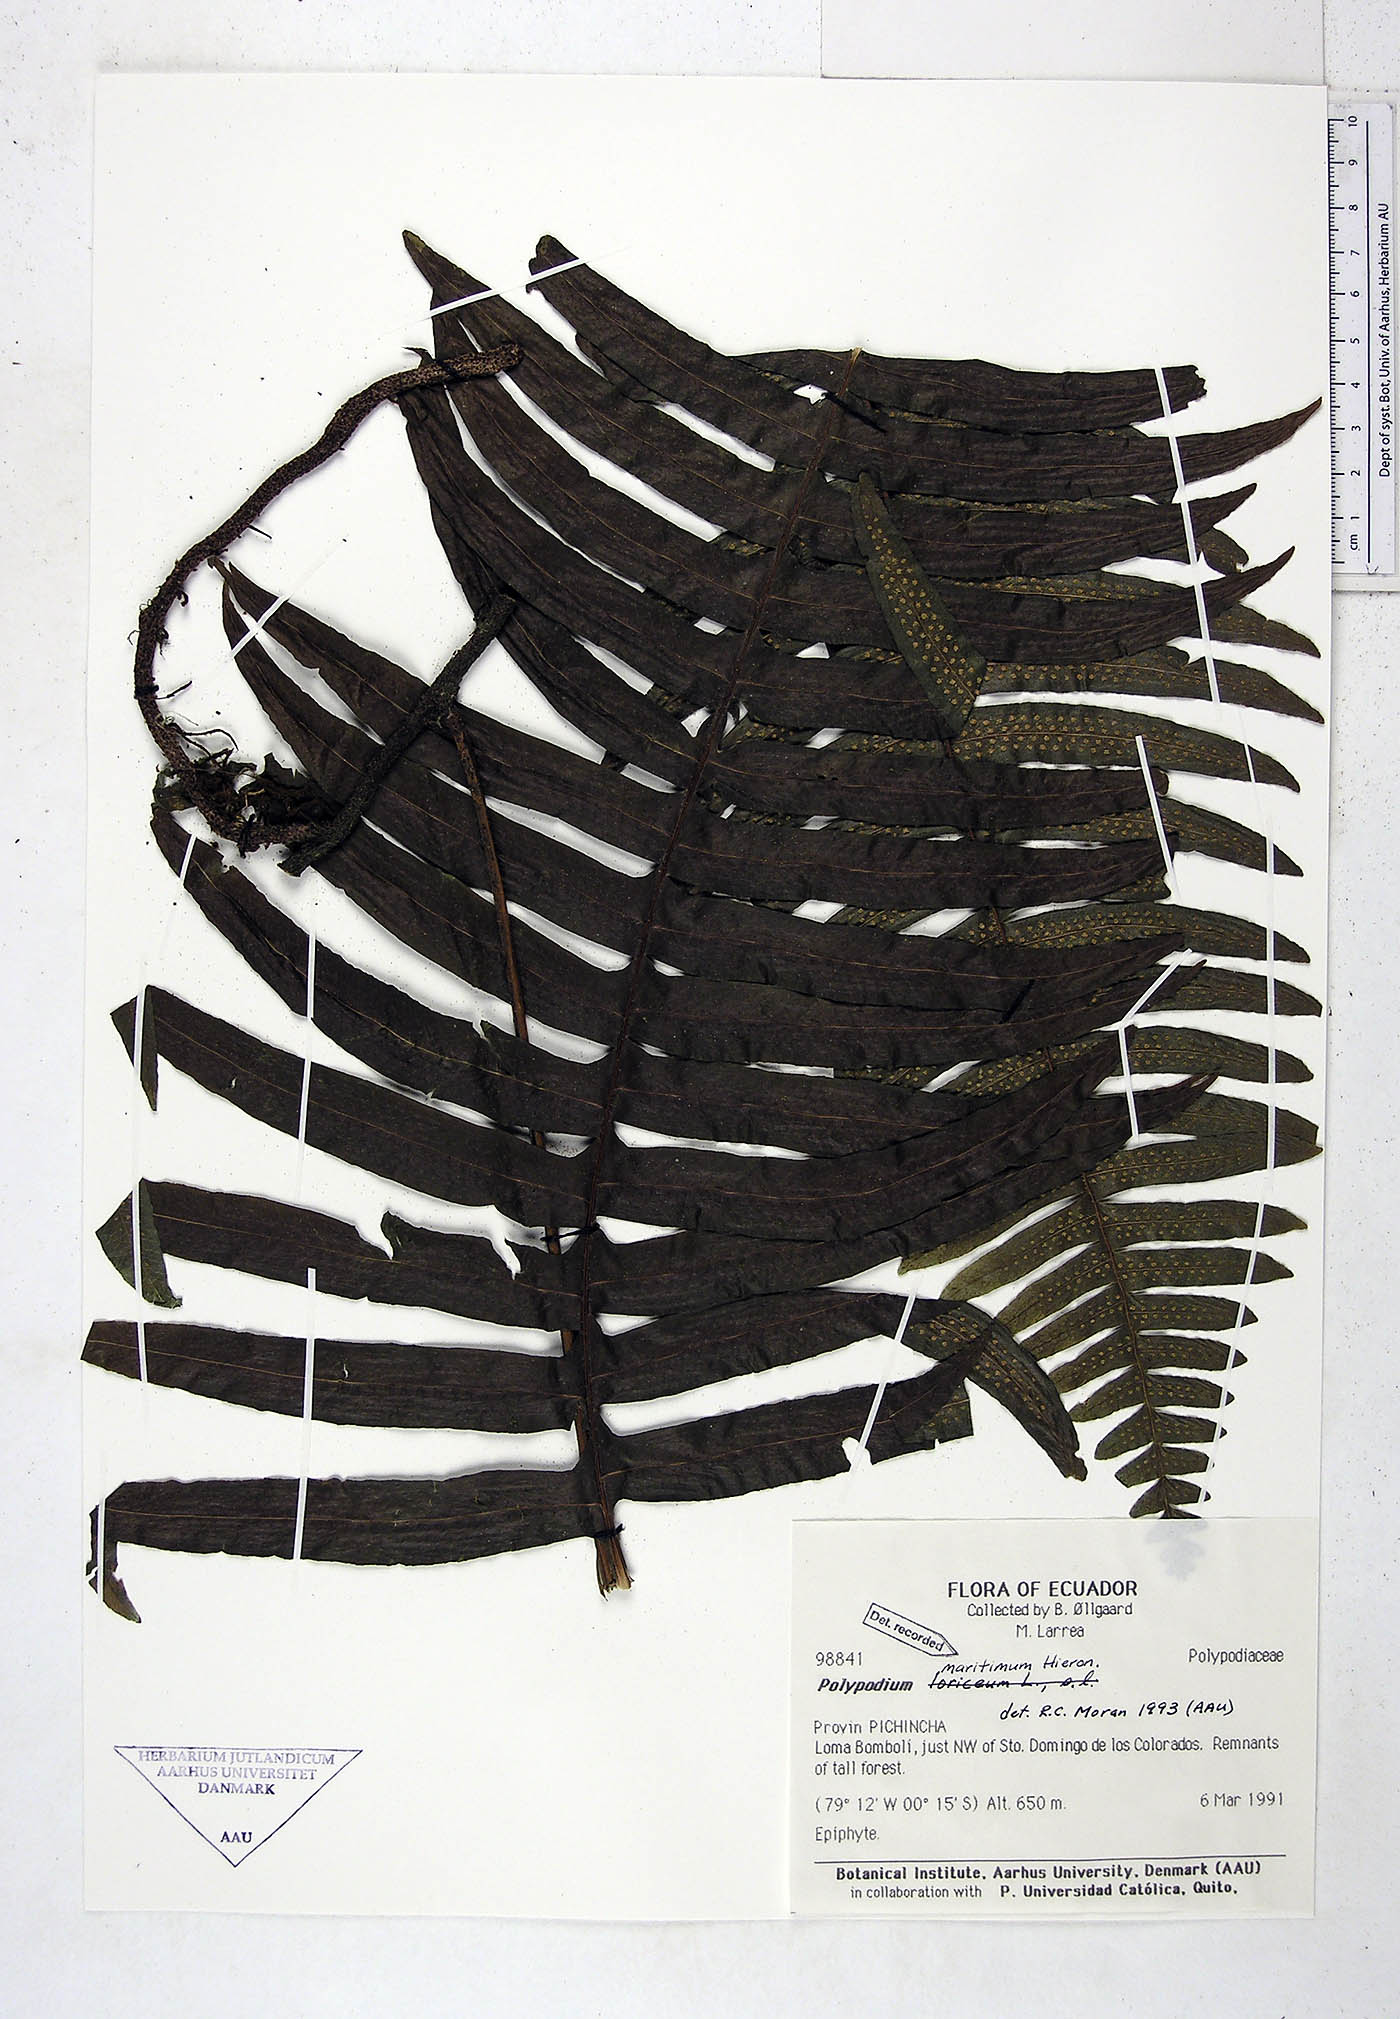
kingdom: Plantae
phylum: Tracheophyta
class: Polypodiopsida
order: Polypodiales
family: Polypodiaceae
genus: Serpocaulon
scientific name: Serpocaulon maritimum
